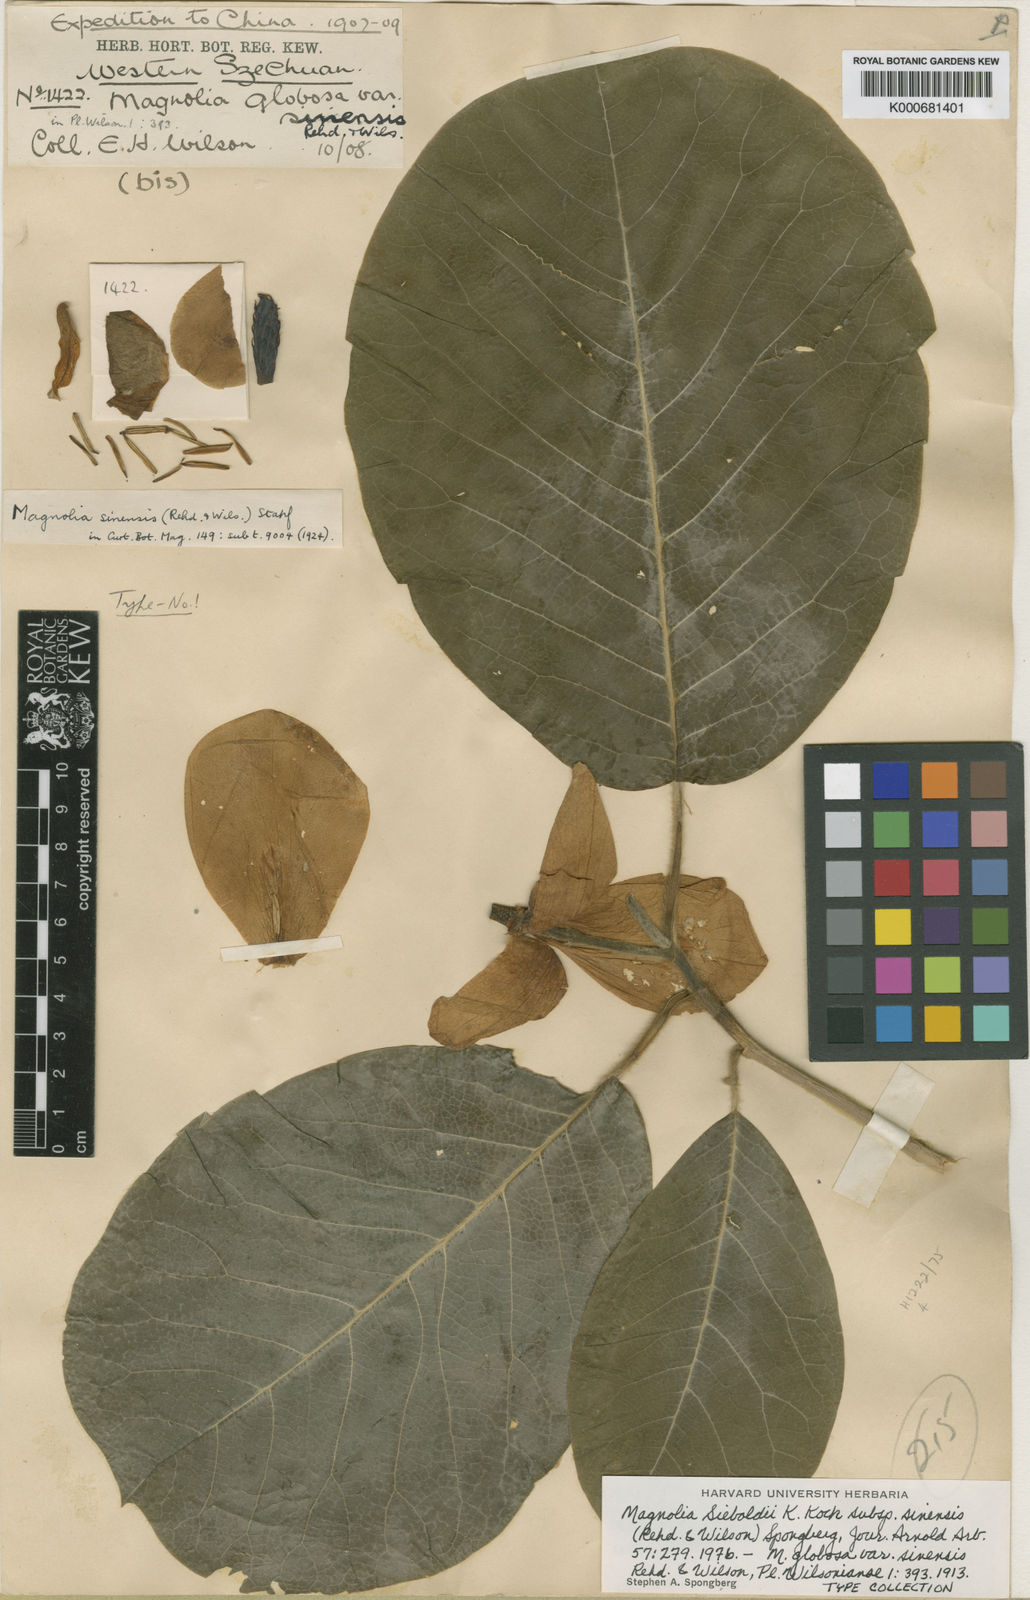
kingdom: Plantae
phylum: Tracheophyta
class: Magnoliopsida
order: Magnoliales
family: Magnoliaceae
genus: Magnolia
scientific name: Magnolia sieboldii
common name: Oyama magnolia
